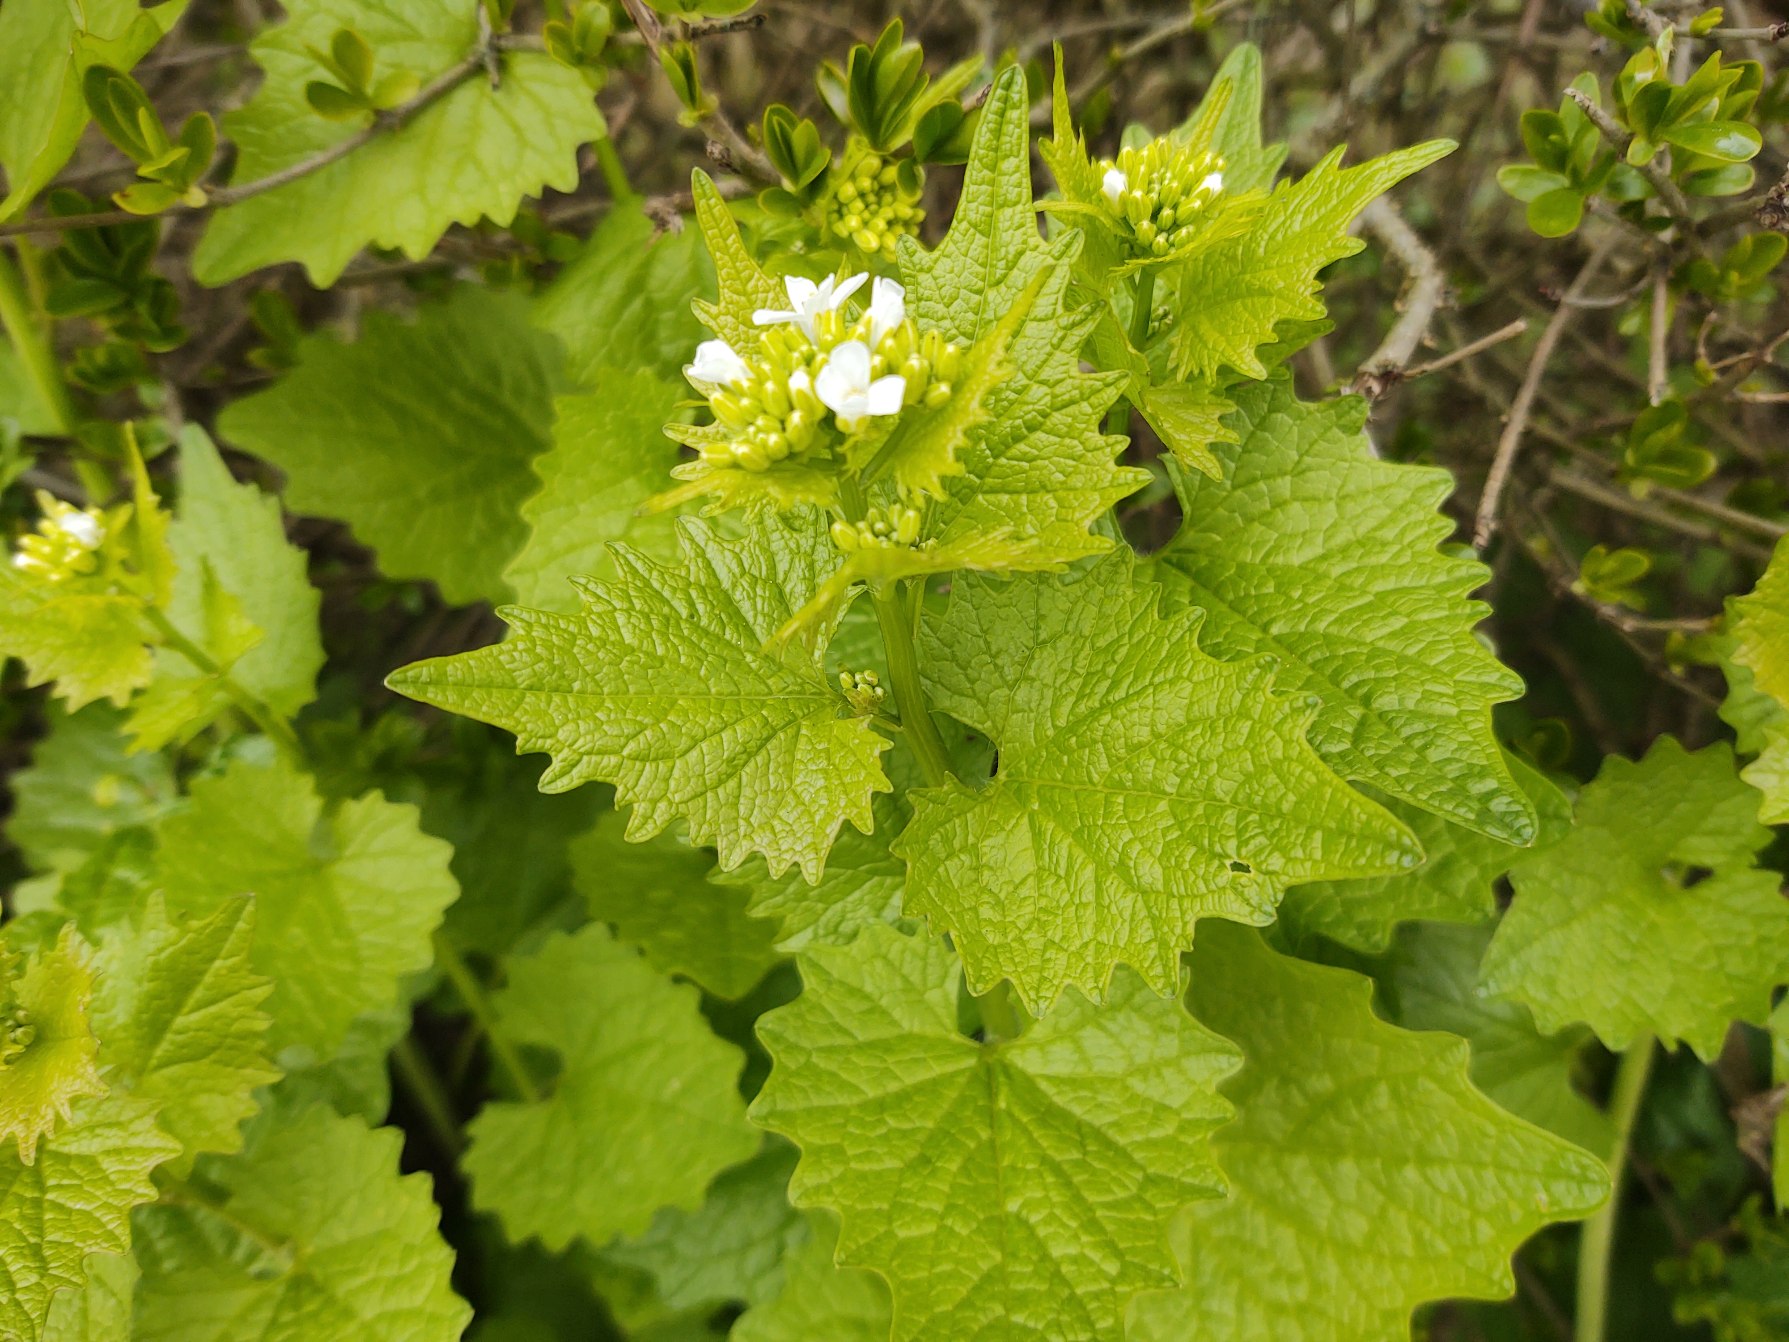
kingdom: Plantae
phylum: Tracheophyta
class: Magnoliopsida
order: Brassicales
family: Brassicaceae
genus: Alliaria
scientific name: Alliaria petiolata
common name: Løgkarse
